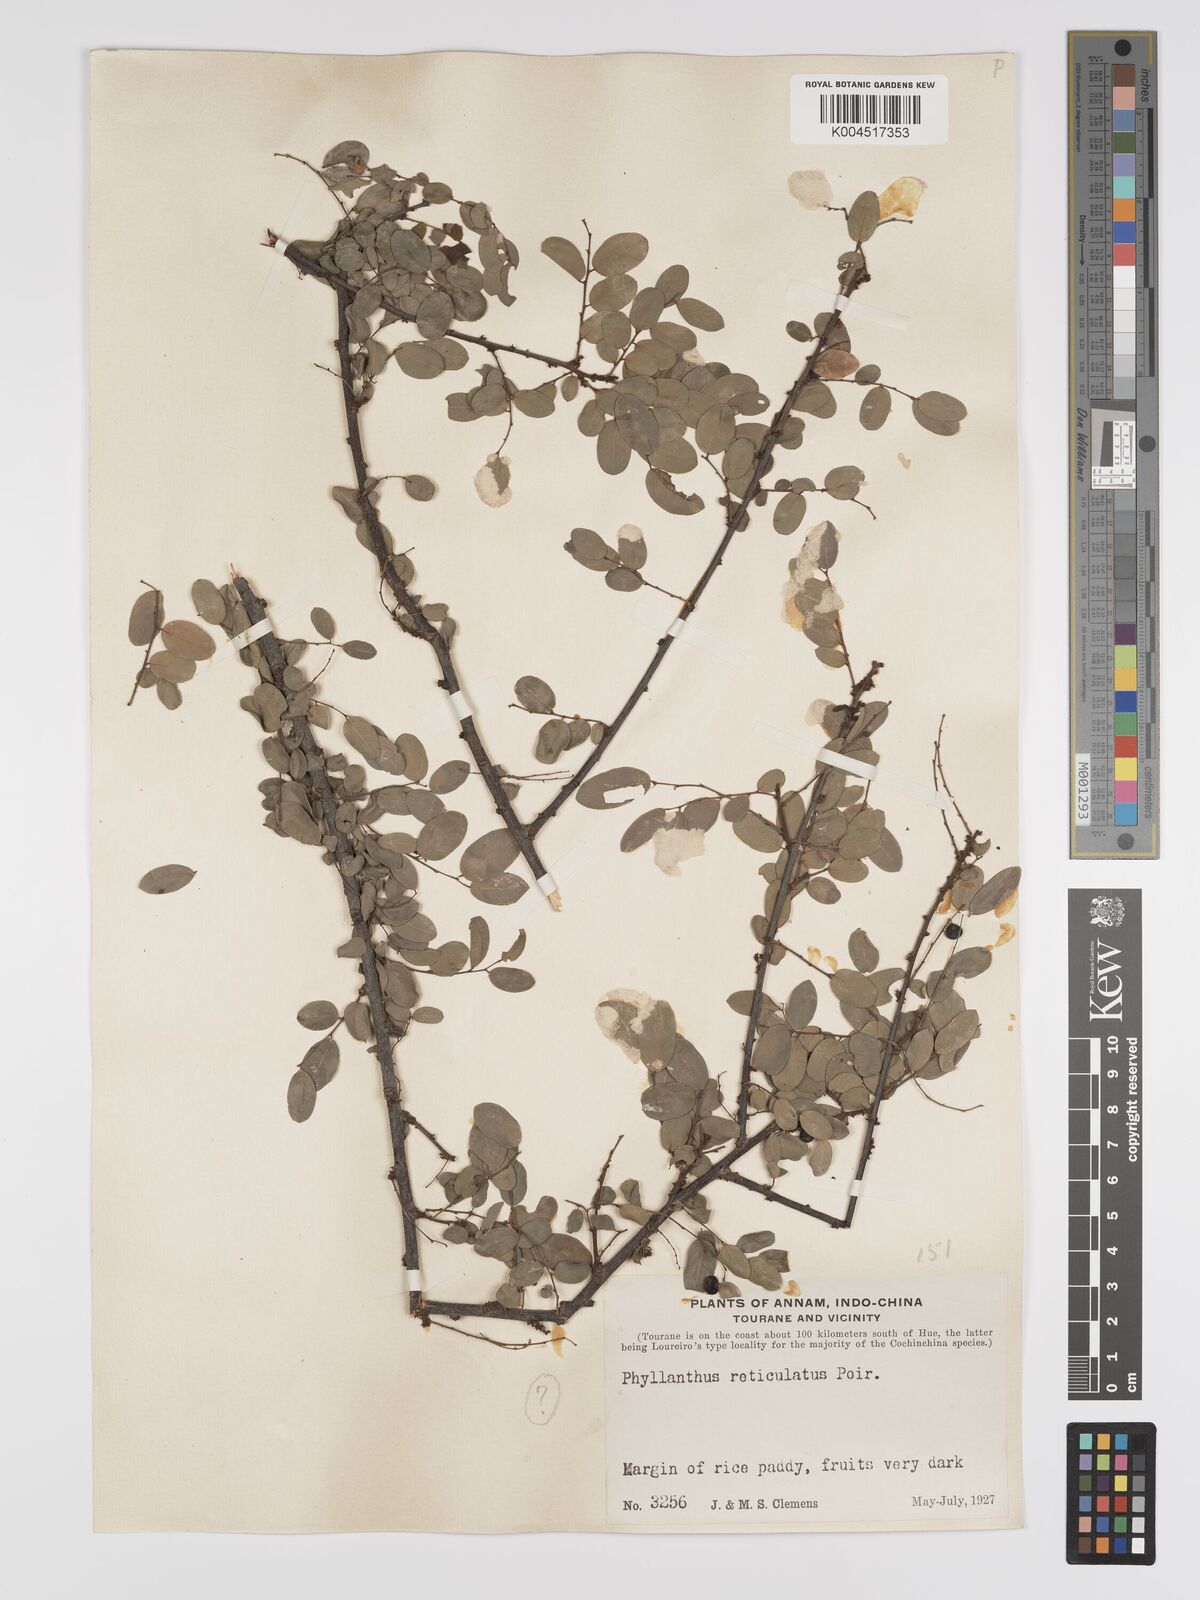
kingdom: Plantae
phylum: Tracheophyta
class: Magnoliopsida
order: Malpighiales
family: Phyllanthaceae
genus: Phyllanthus
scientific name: Phyllanthus reticulatus
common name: Potato bush
